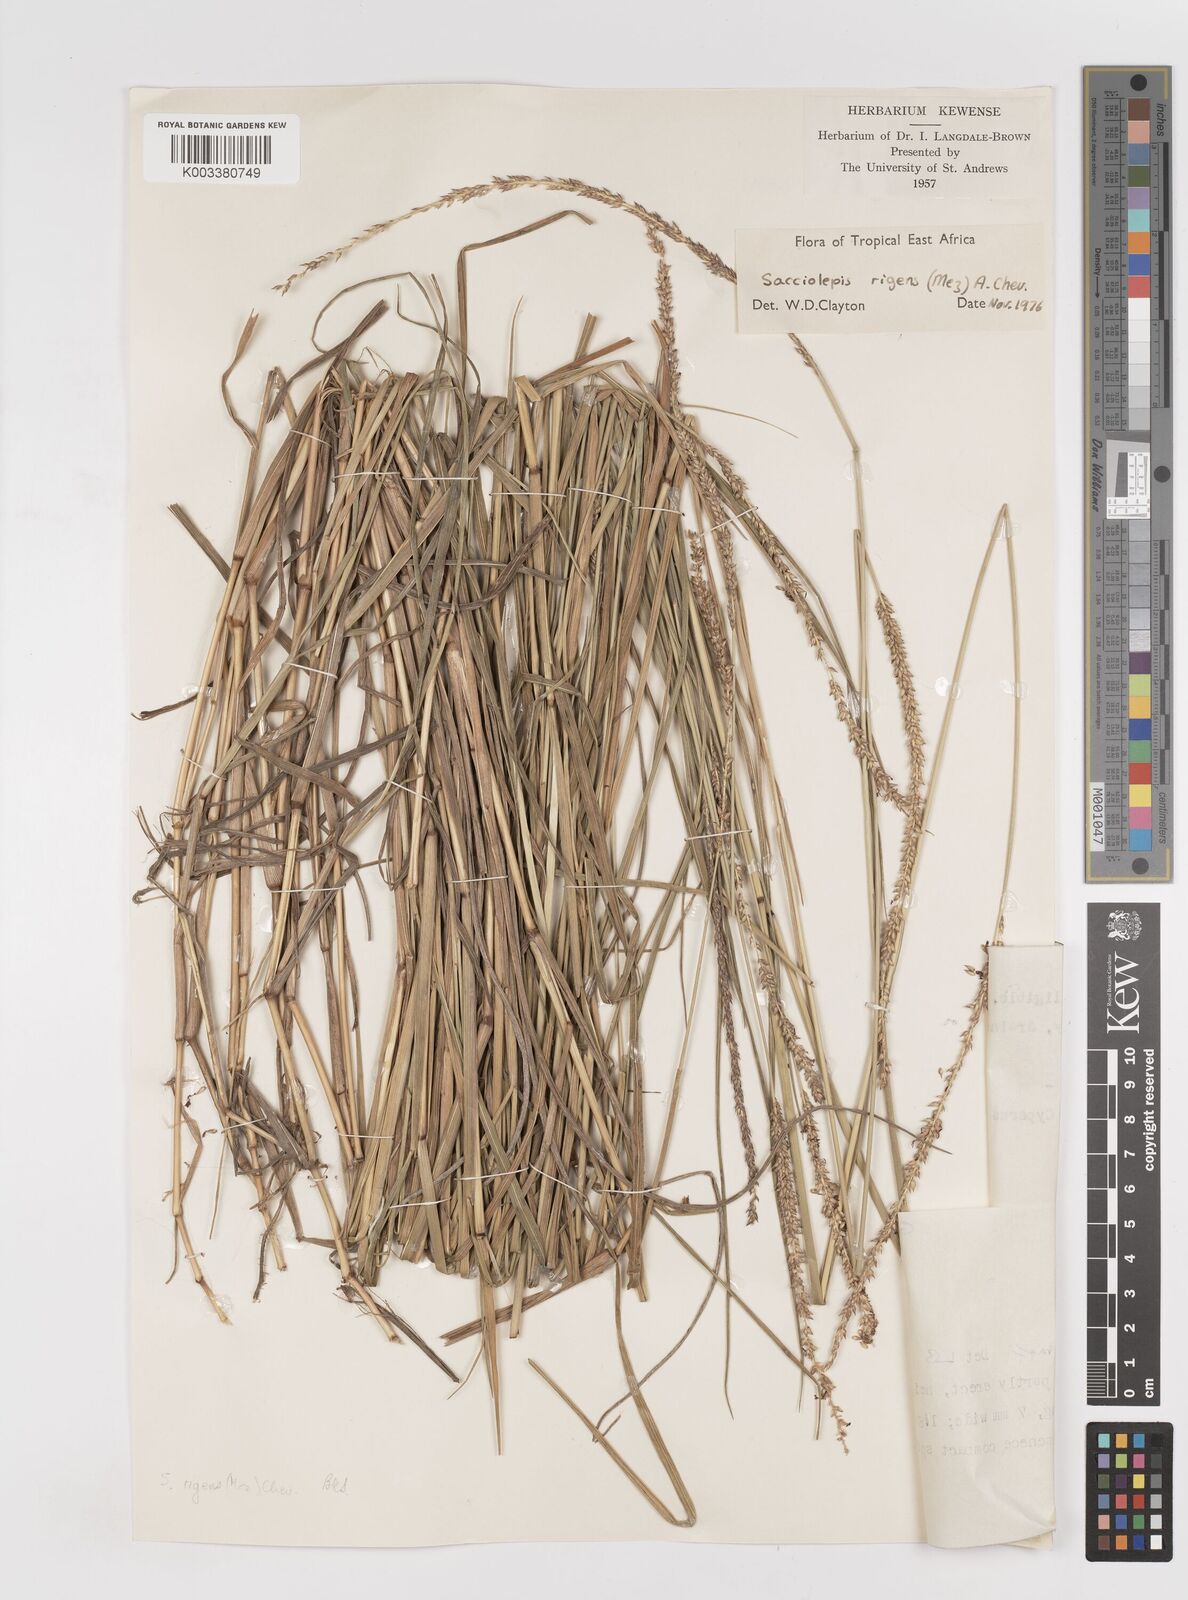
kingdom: Plantae
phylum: Tracheophyta
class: Liliopsida
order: Poales
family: Poaceae
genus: Sacciolepis
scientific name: Sacciolepis leptorrhachis
